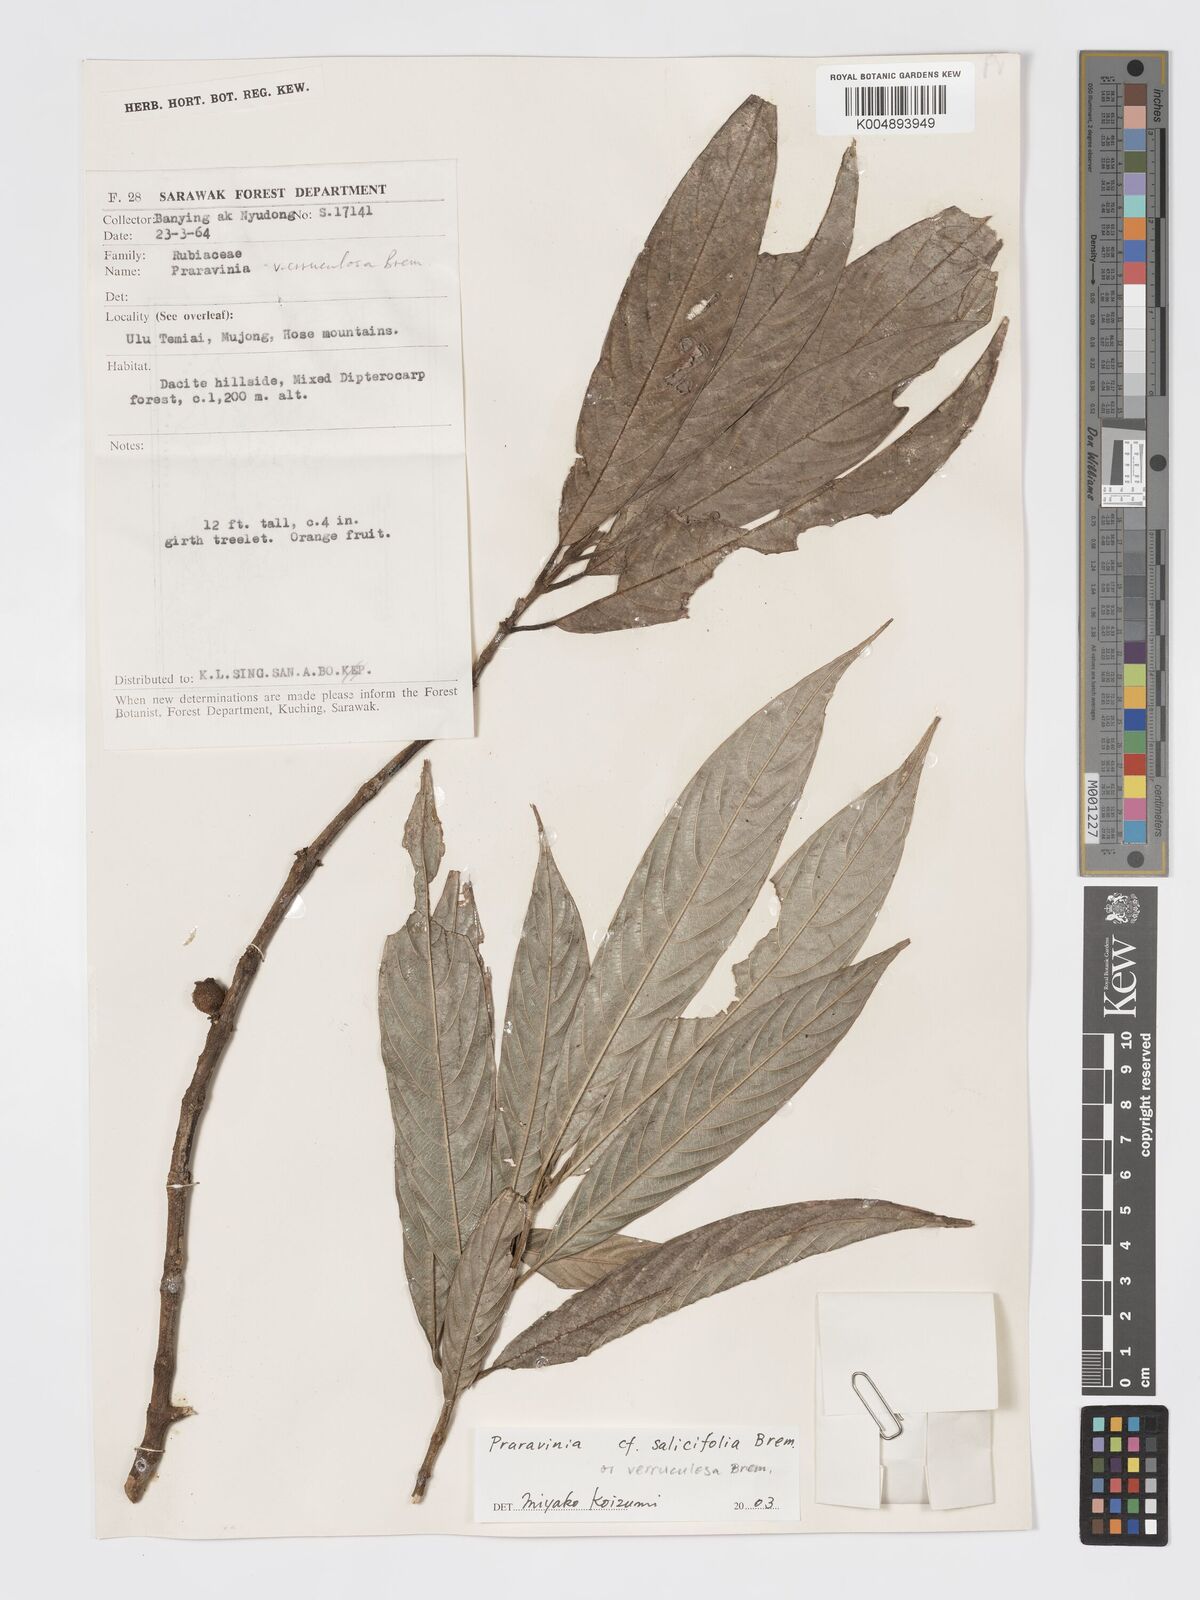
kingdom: Plantae
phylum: Tracheophyta
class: Magnoliopsida
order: Gentianales
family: Rubiaceae
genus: Praravinia
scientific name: Praravinia salicifolia
